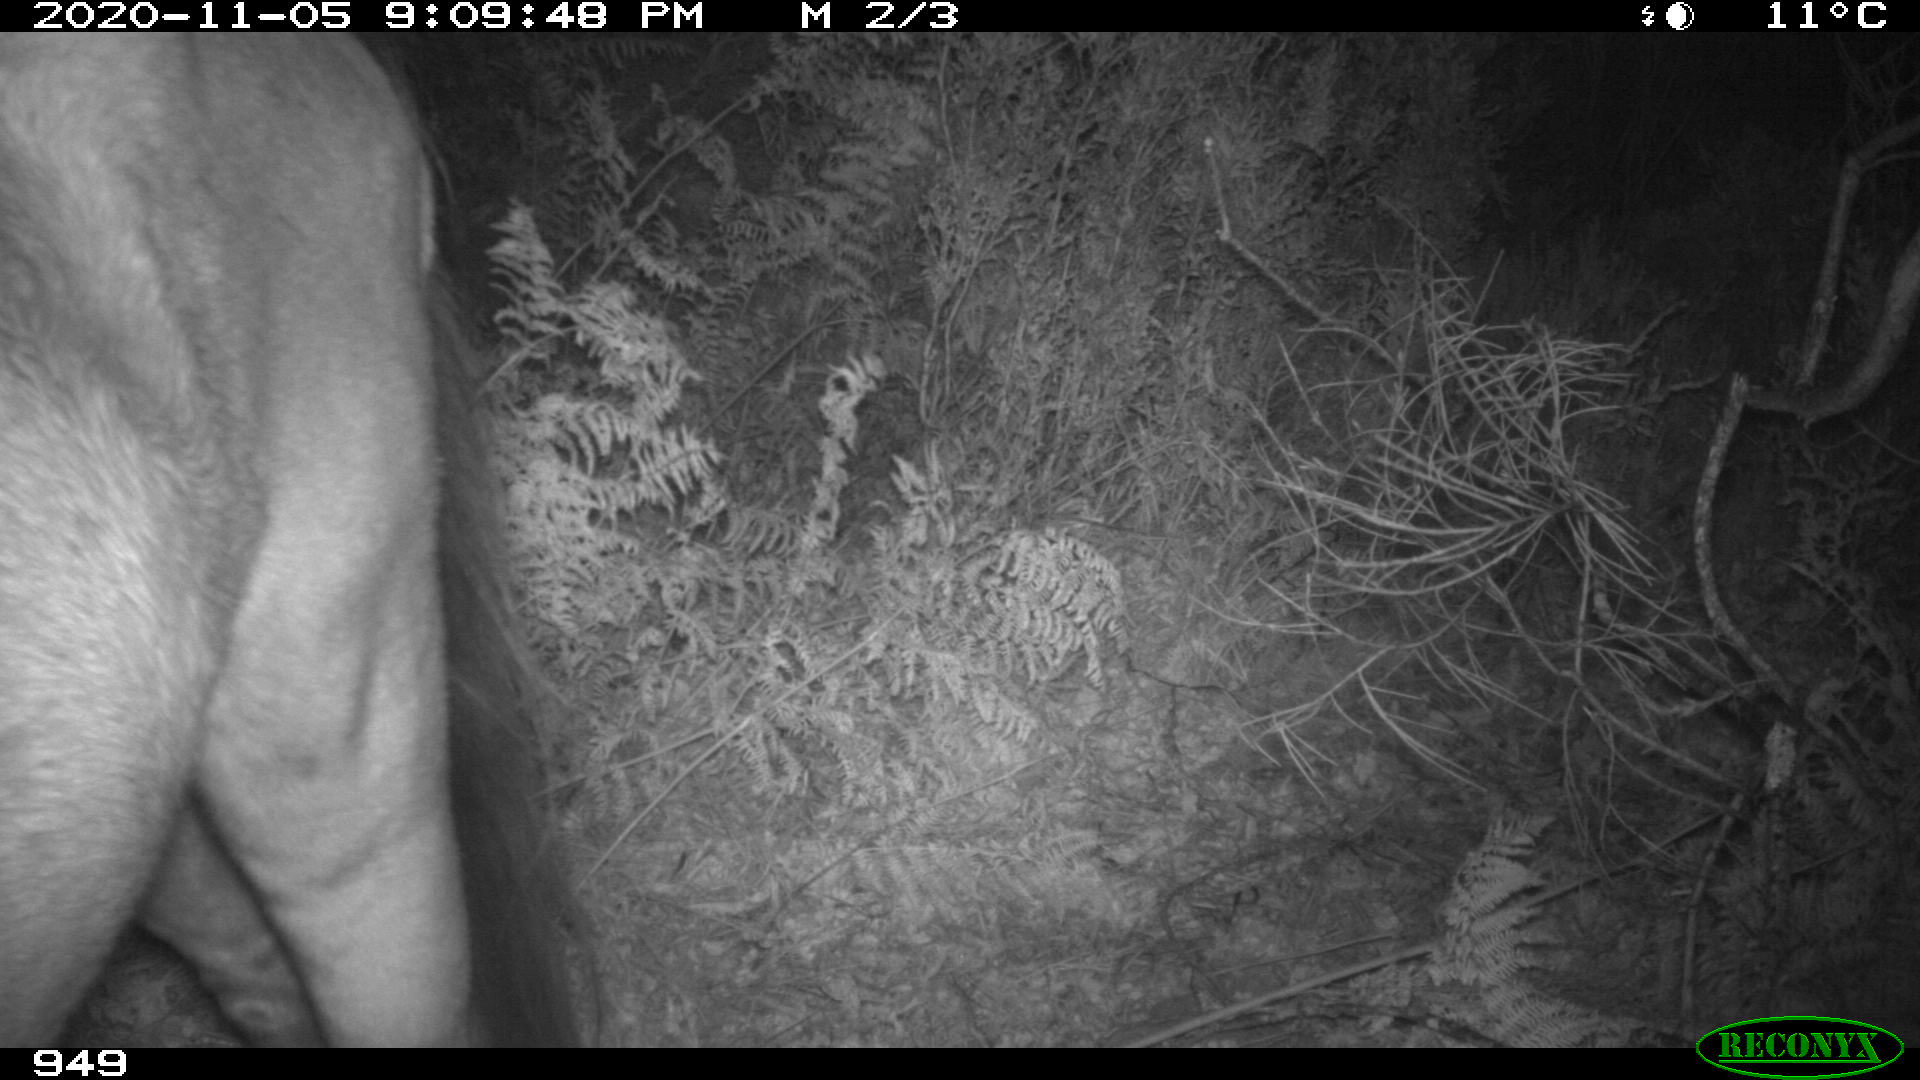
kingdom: Animalia
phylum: Chordata
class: Mammalia
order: Perissodactyla
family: Equidae
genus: Equus
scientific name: Equus caballus
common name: Horse
